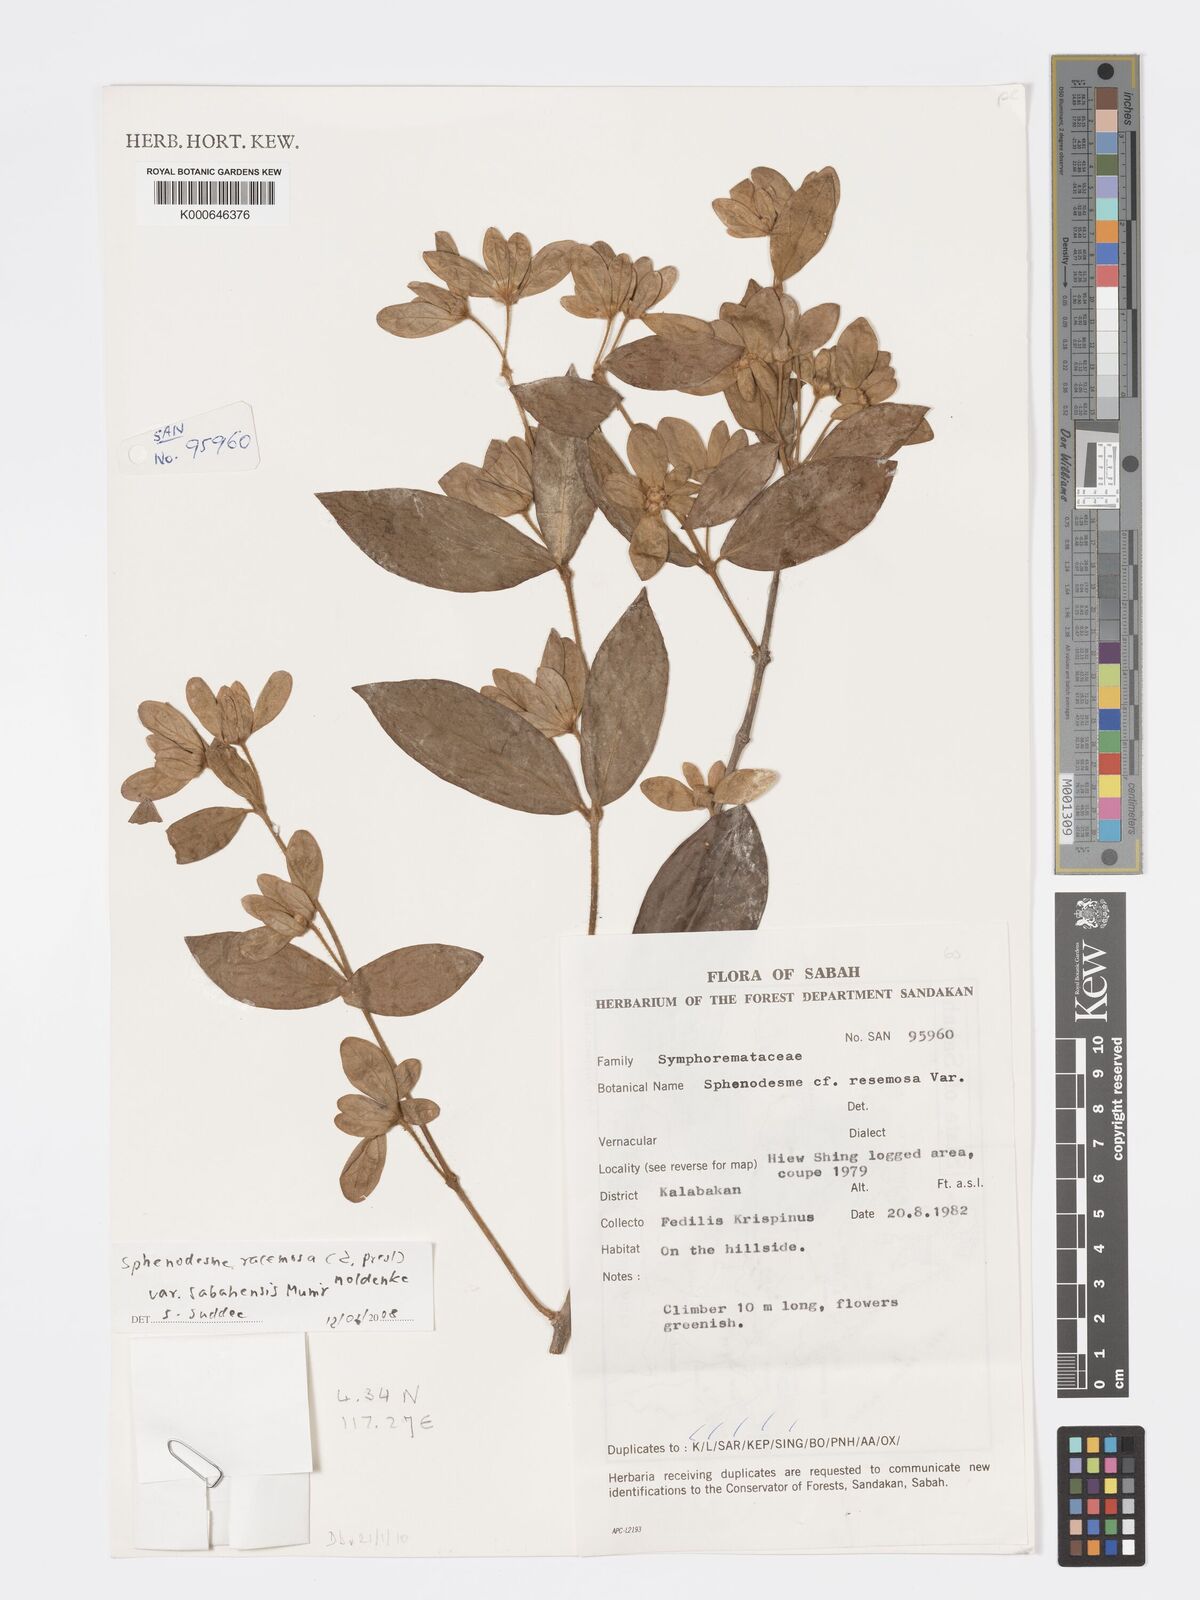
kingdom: Plantae
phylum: Tracheophyta
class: Magnoliopsida
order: Lamiales
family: Lamiaceae
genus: Sphenodesme
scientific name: Sphenodesme racemosa
